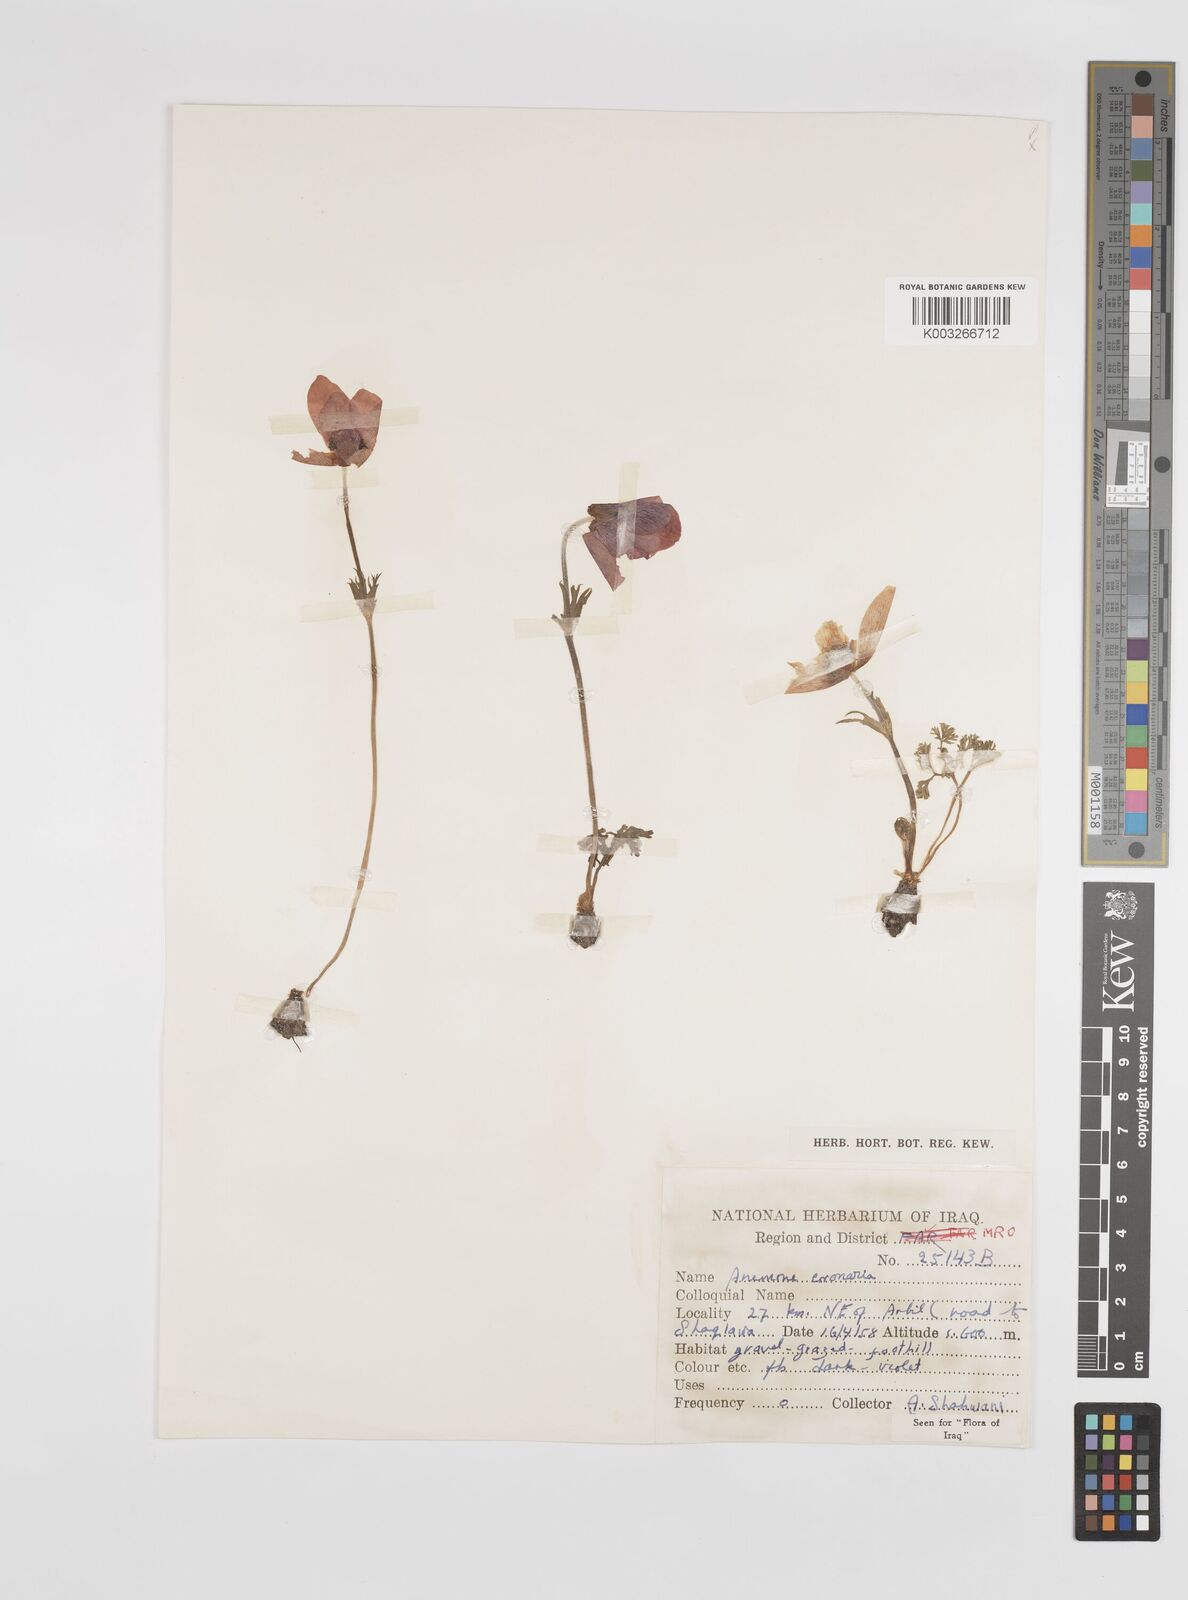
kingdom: Plantae
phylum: Tracheophyta
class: Magnoliopsida
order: Ranunculales
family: Ranunculaceae
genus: Anemone
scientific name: Anemone coronaria
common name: Poppy anemone
